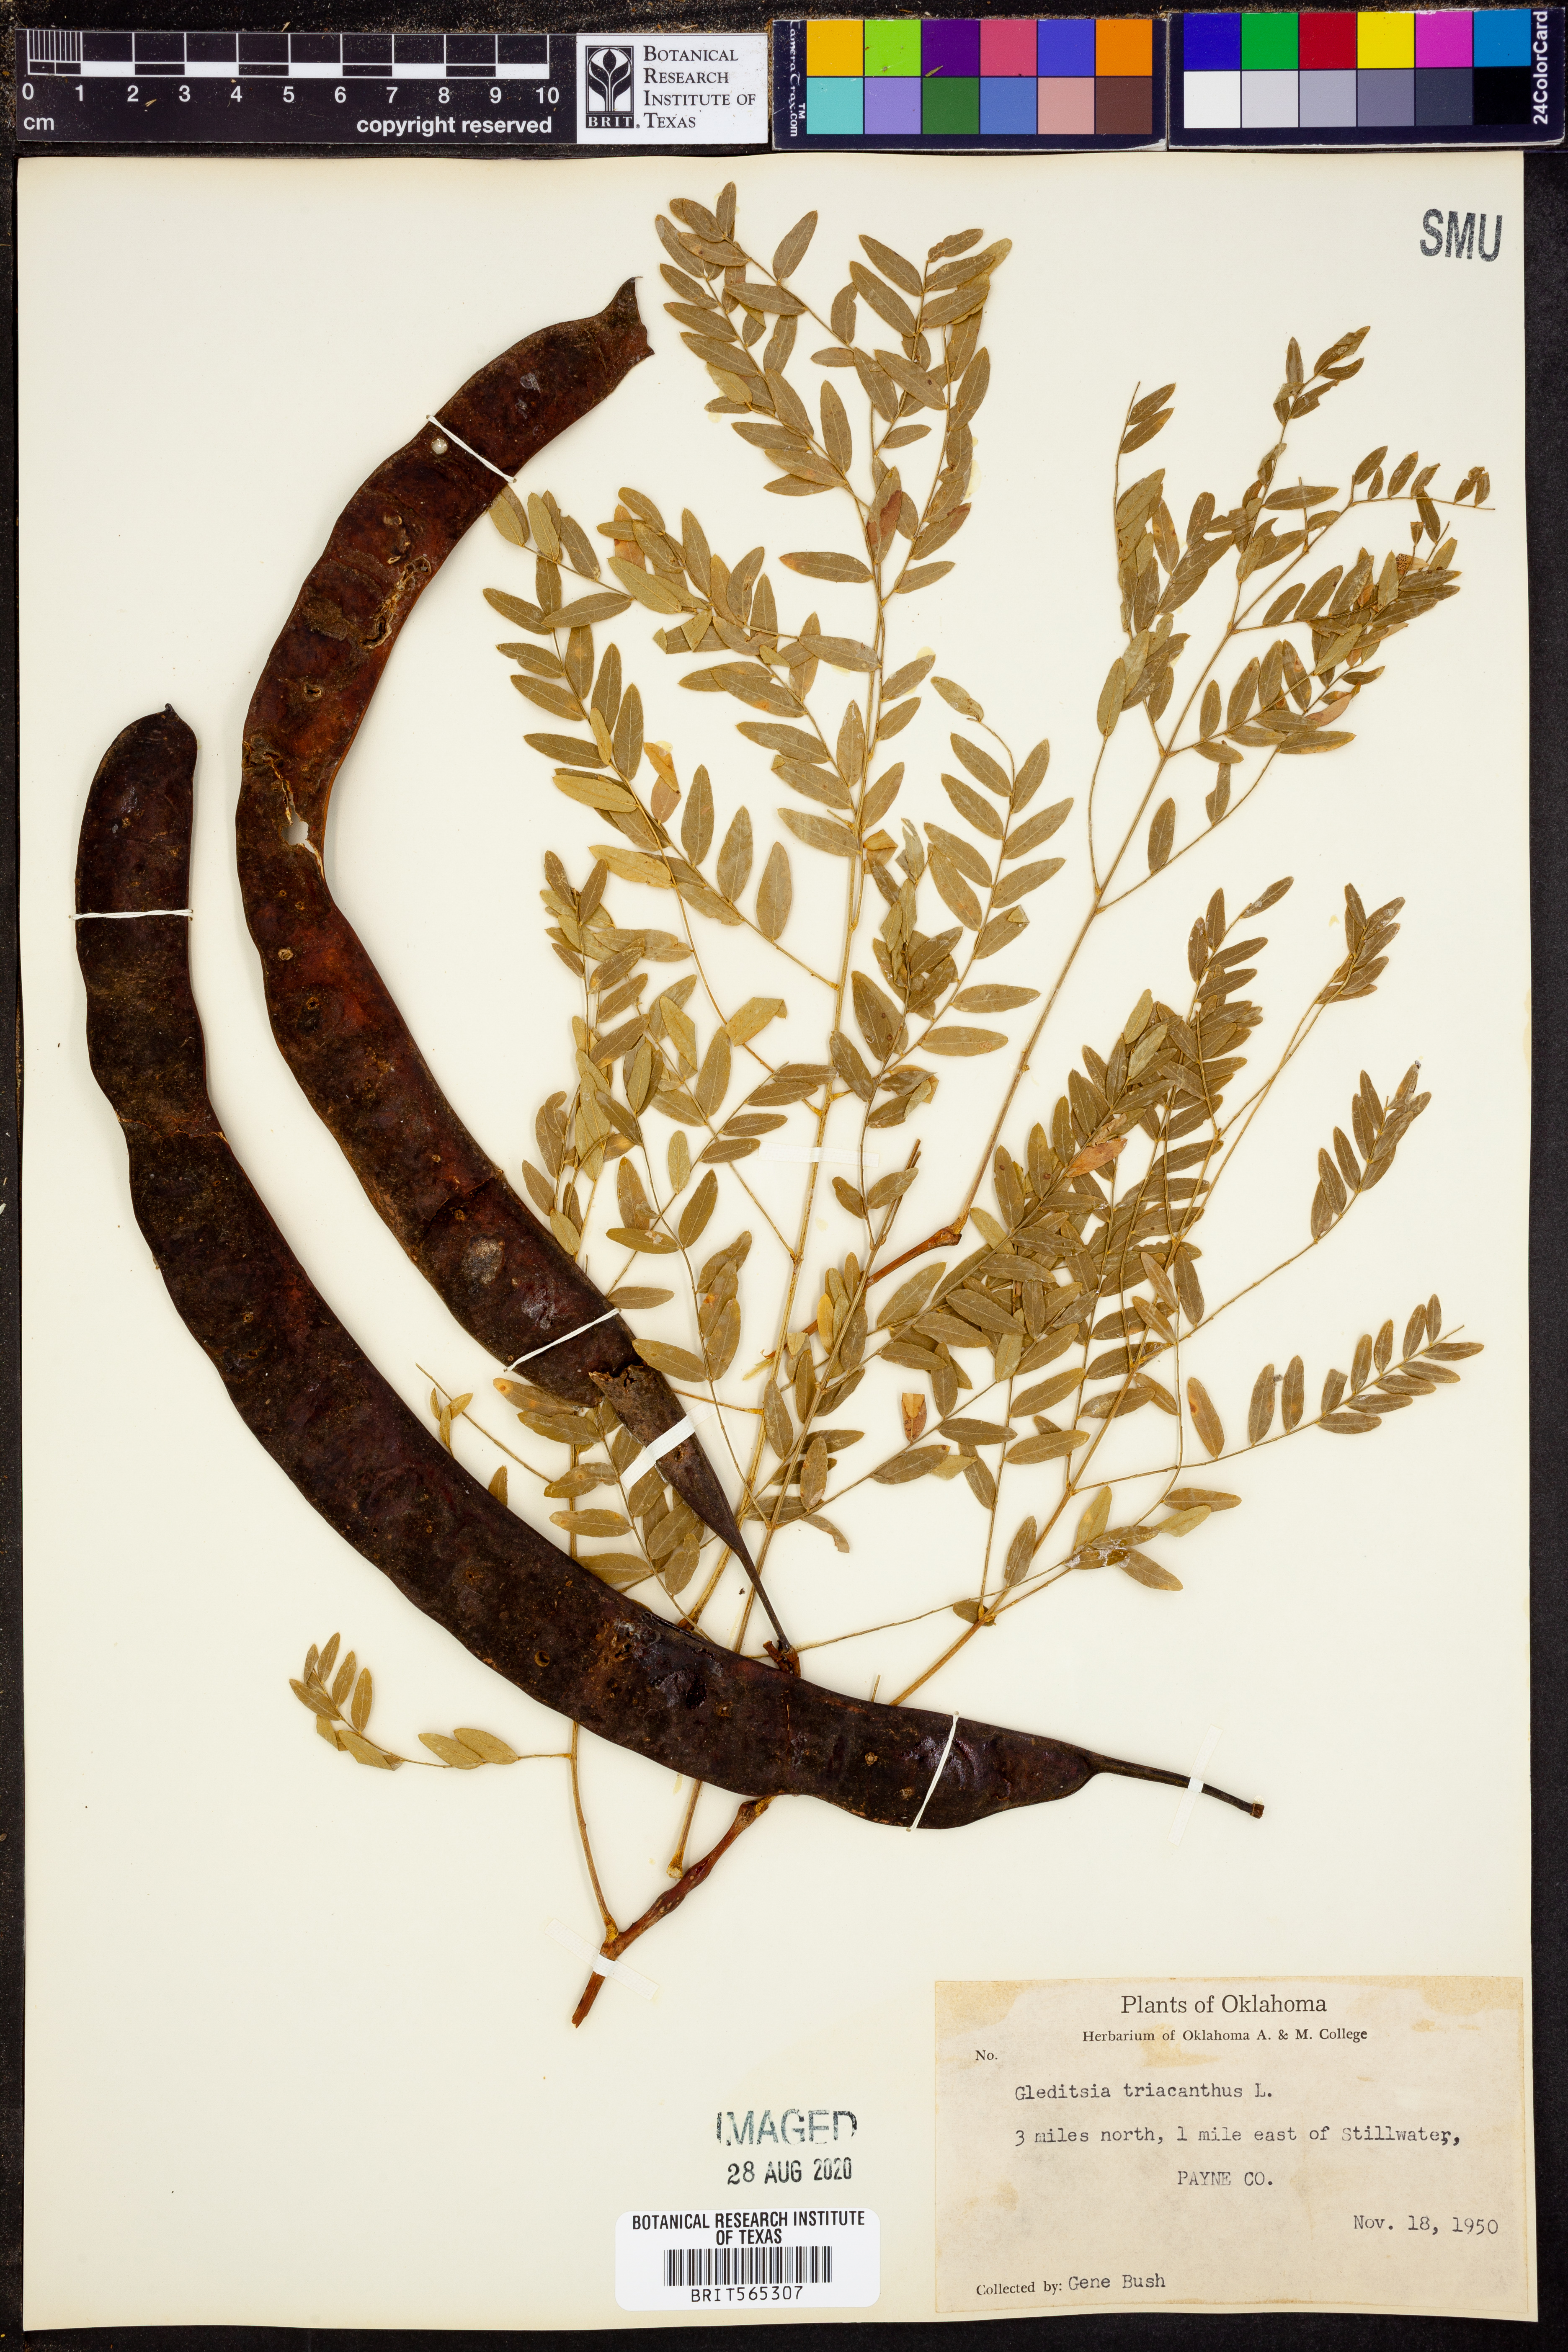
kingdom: Plantae
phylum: Tracheophyta
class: Magnoliopsida
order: Fabales
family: Fabaceae
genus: Gleditsia
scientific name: Gleditsia triacanthos
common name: Common honeylocust
